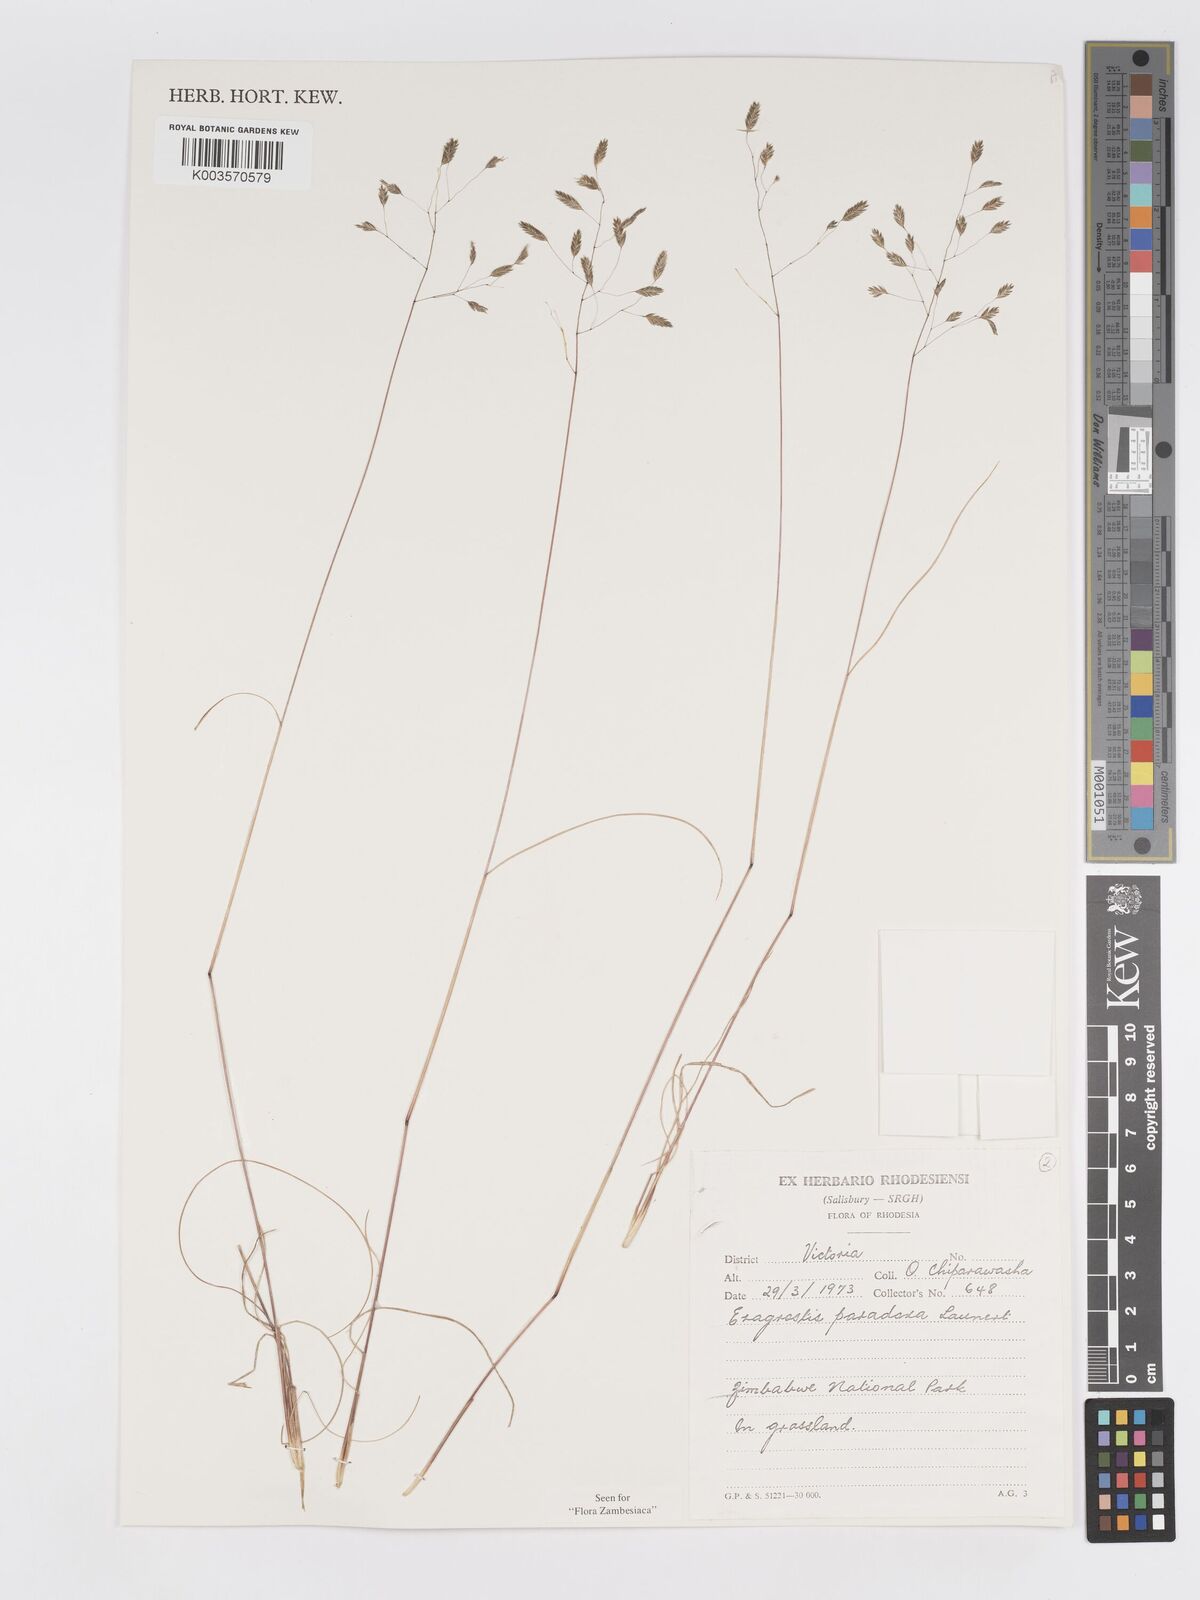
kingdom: Plantae
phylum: Tracheophyta
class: Liliopsida
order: Poales
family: Poaceae
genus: Eragrostis
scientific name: Eragrostis paradoxa
